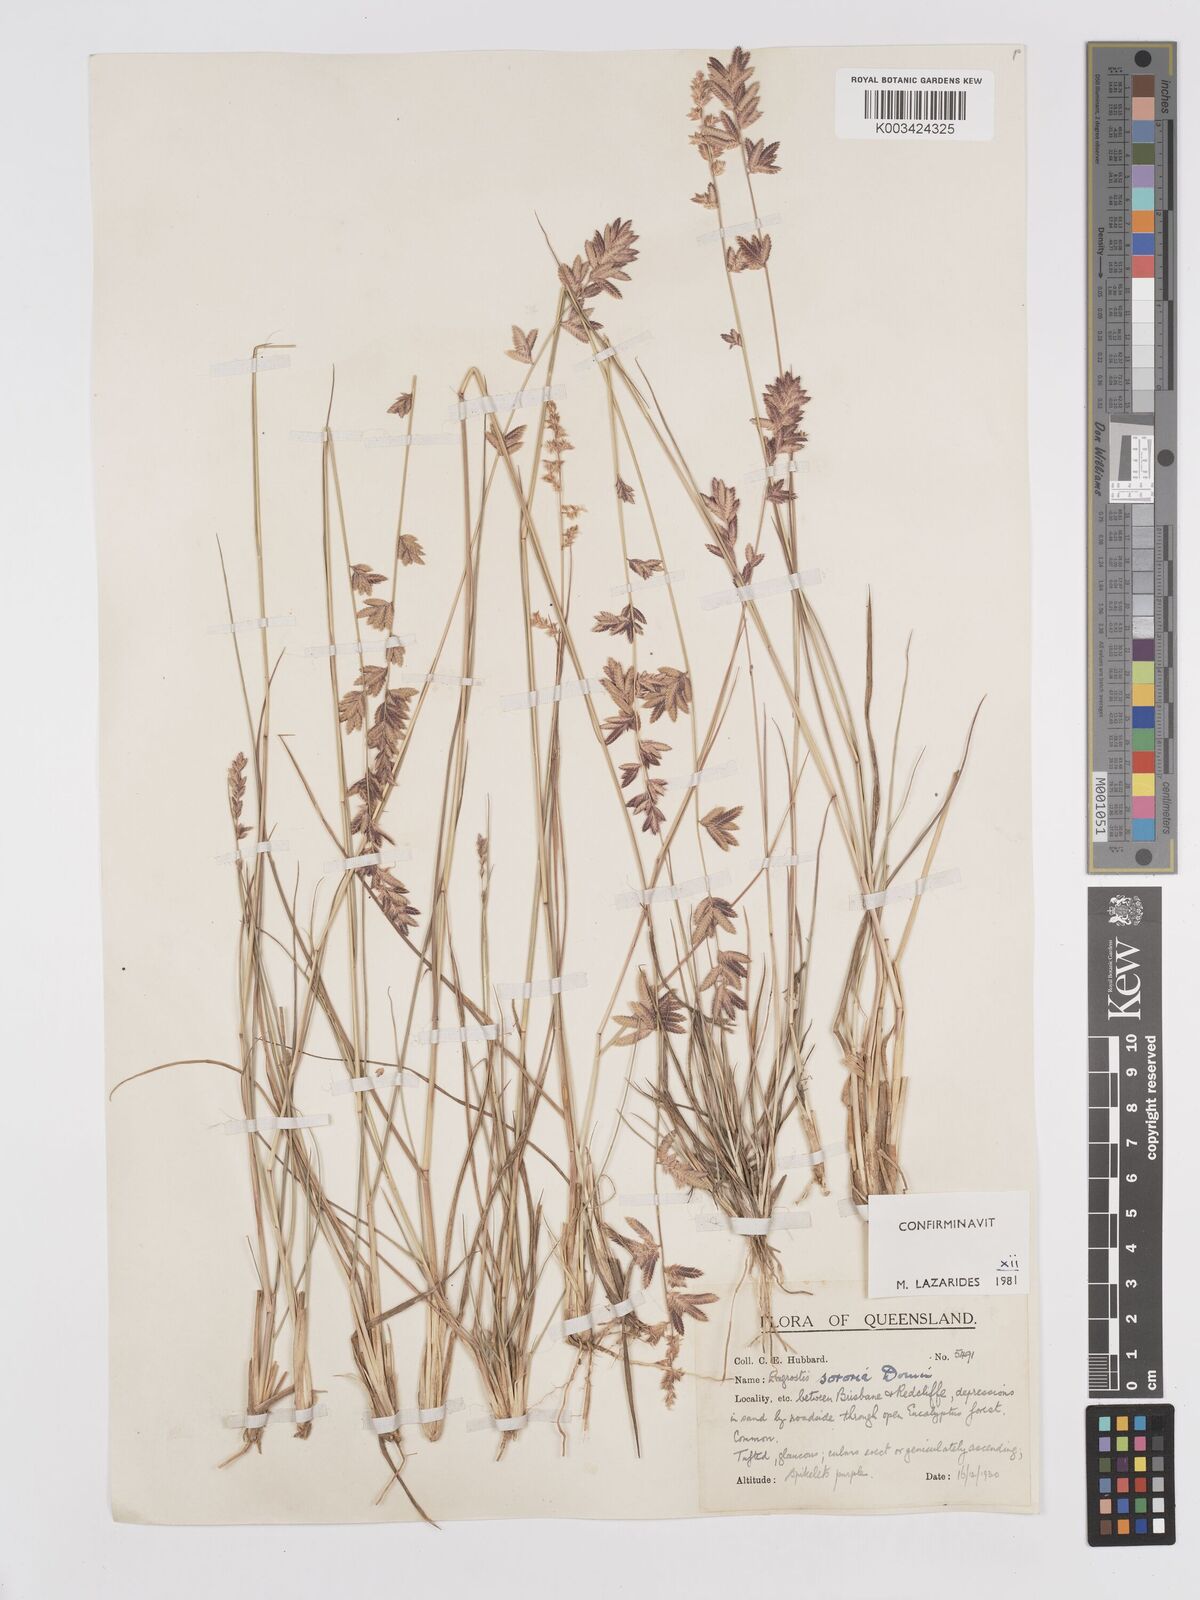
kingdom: Plantae
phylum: Tracheophyta
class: Liliopsida
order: Poales
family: Poaceae
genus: Eragrostis
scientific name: Eragrostis sororia
